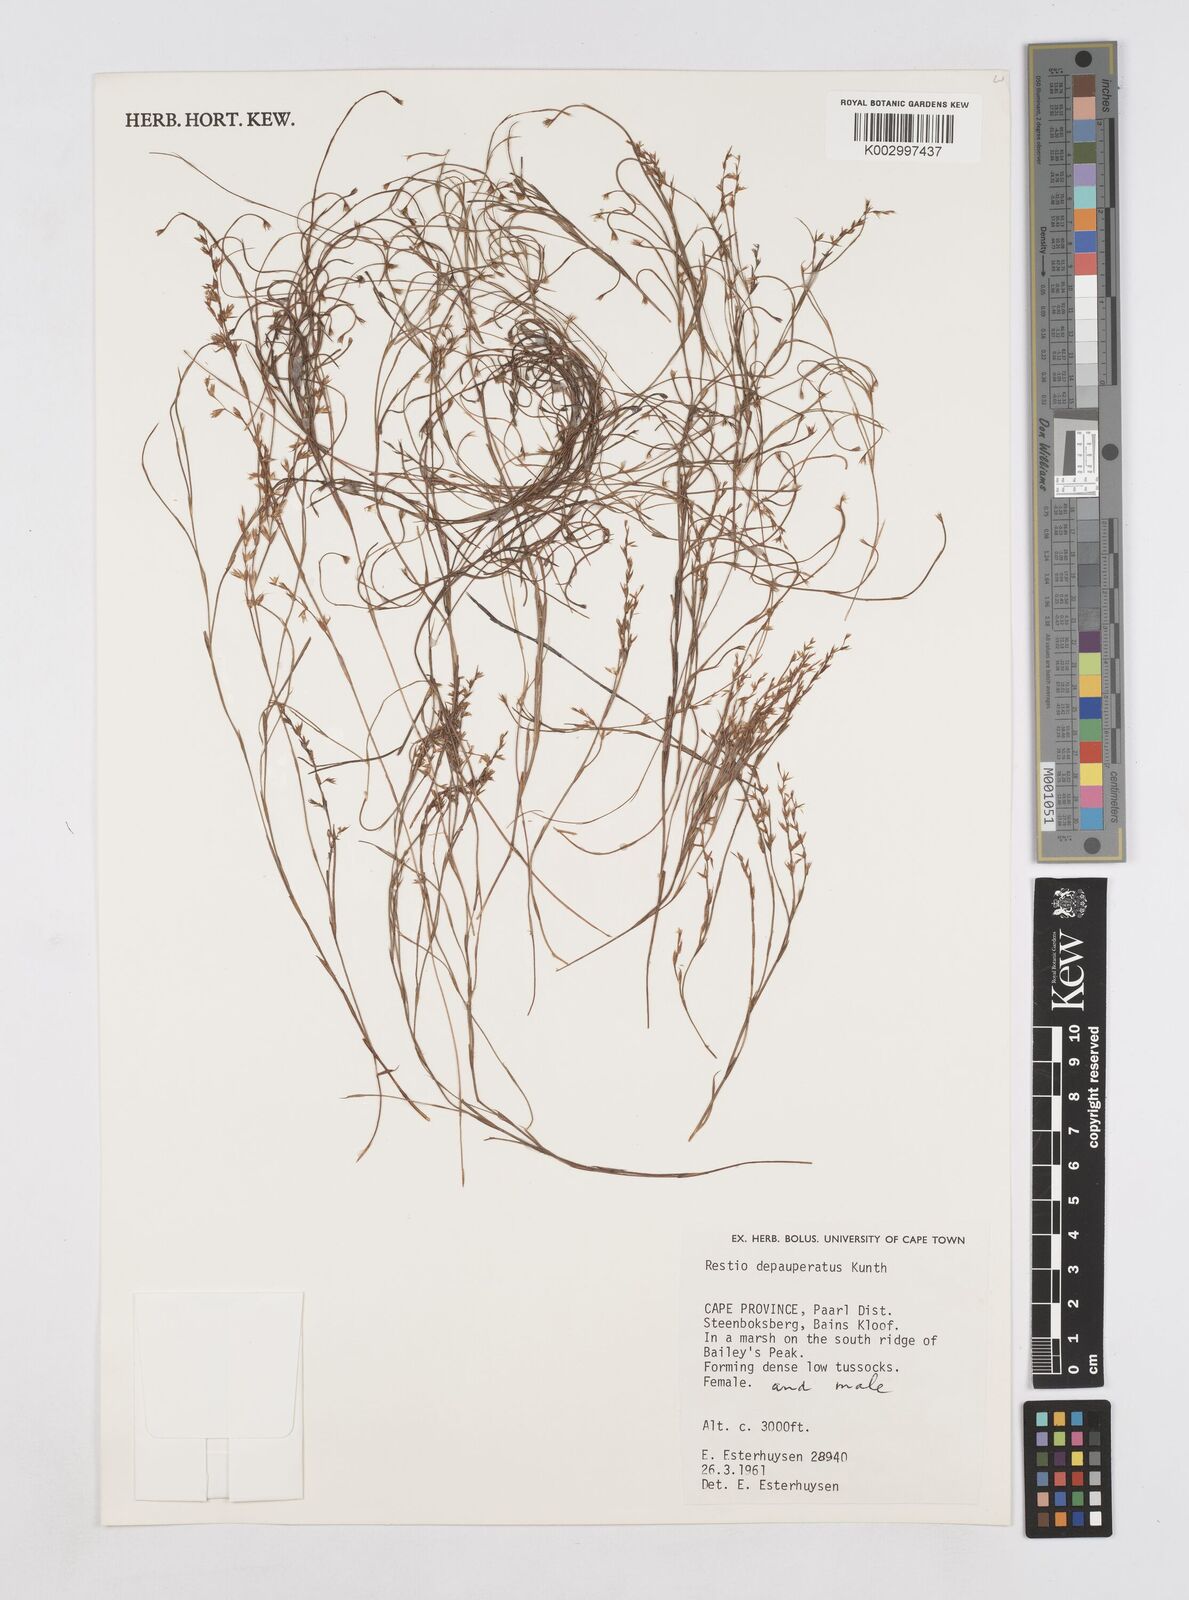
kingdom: Plantae
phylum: Tracheophyta
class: Liliopsida
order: Poales
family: Restionaceae
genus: Platycaulos
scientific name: Platycaulos depauperatus
